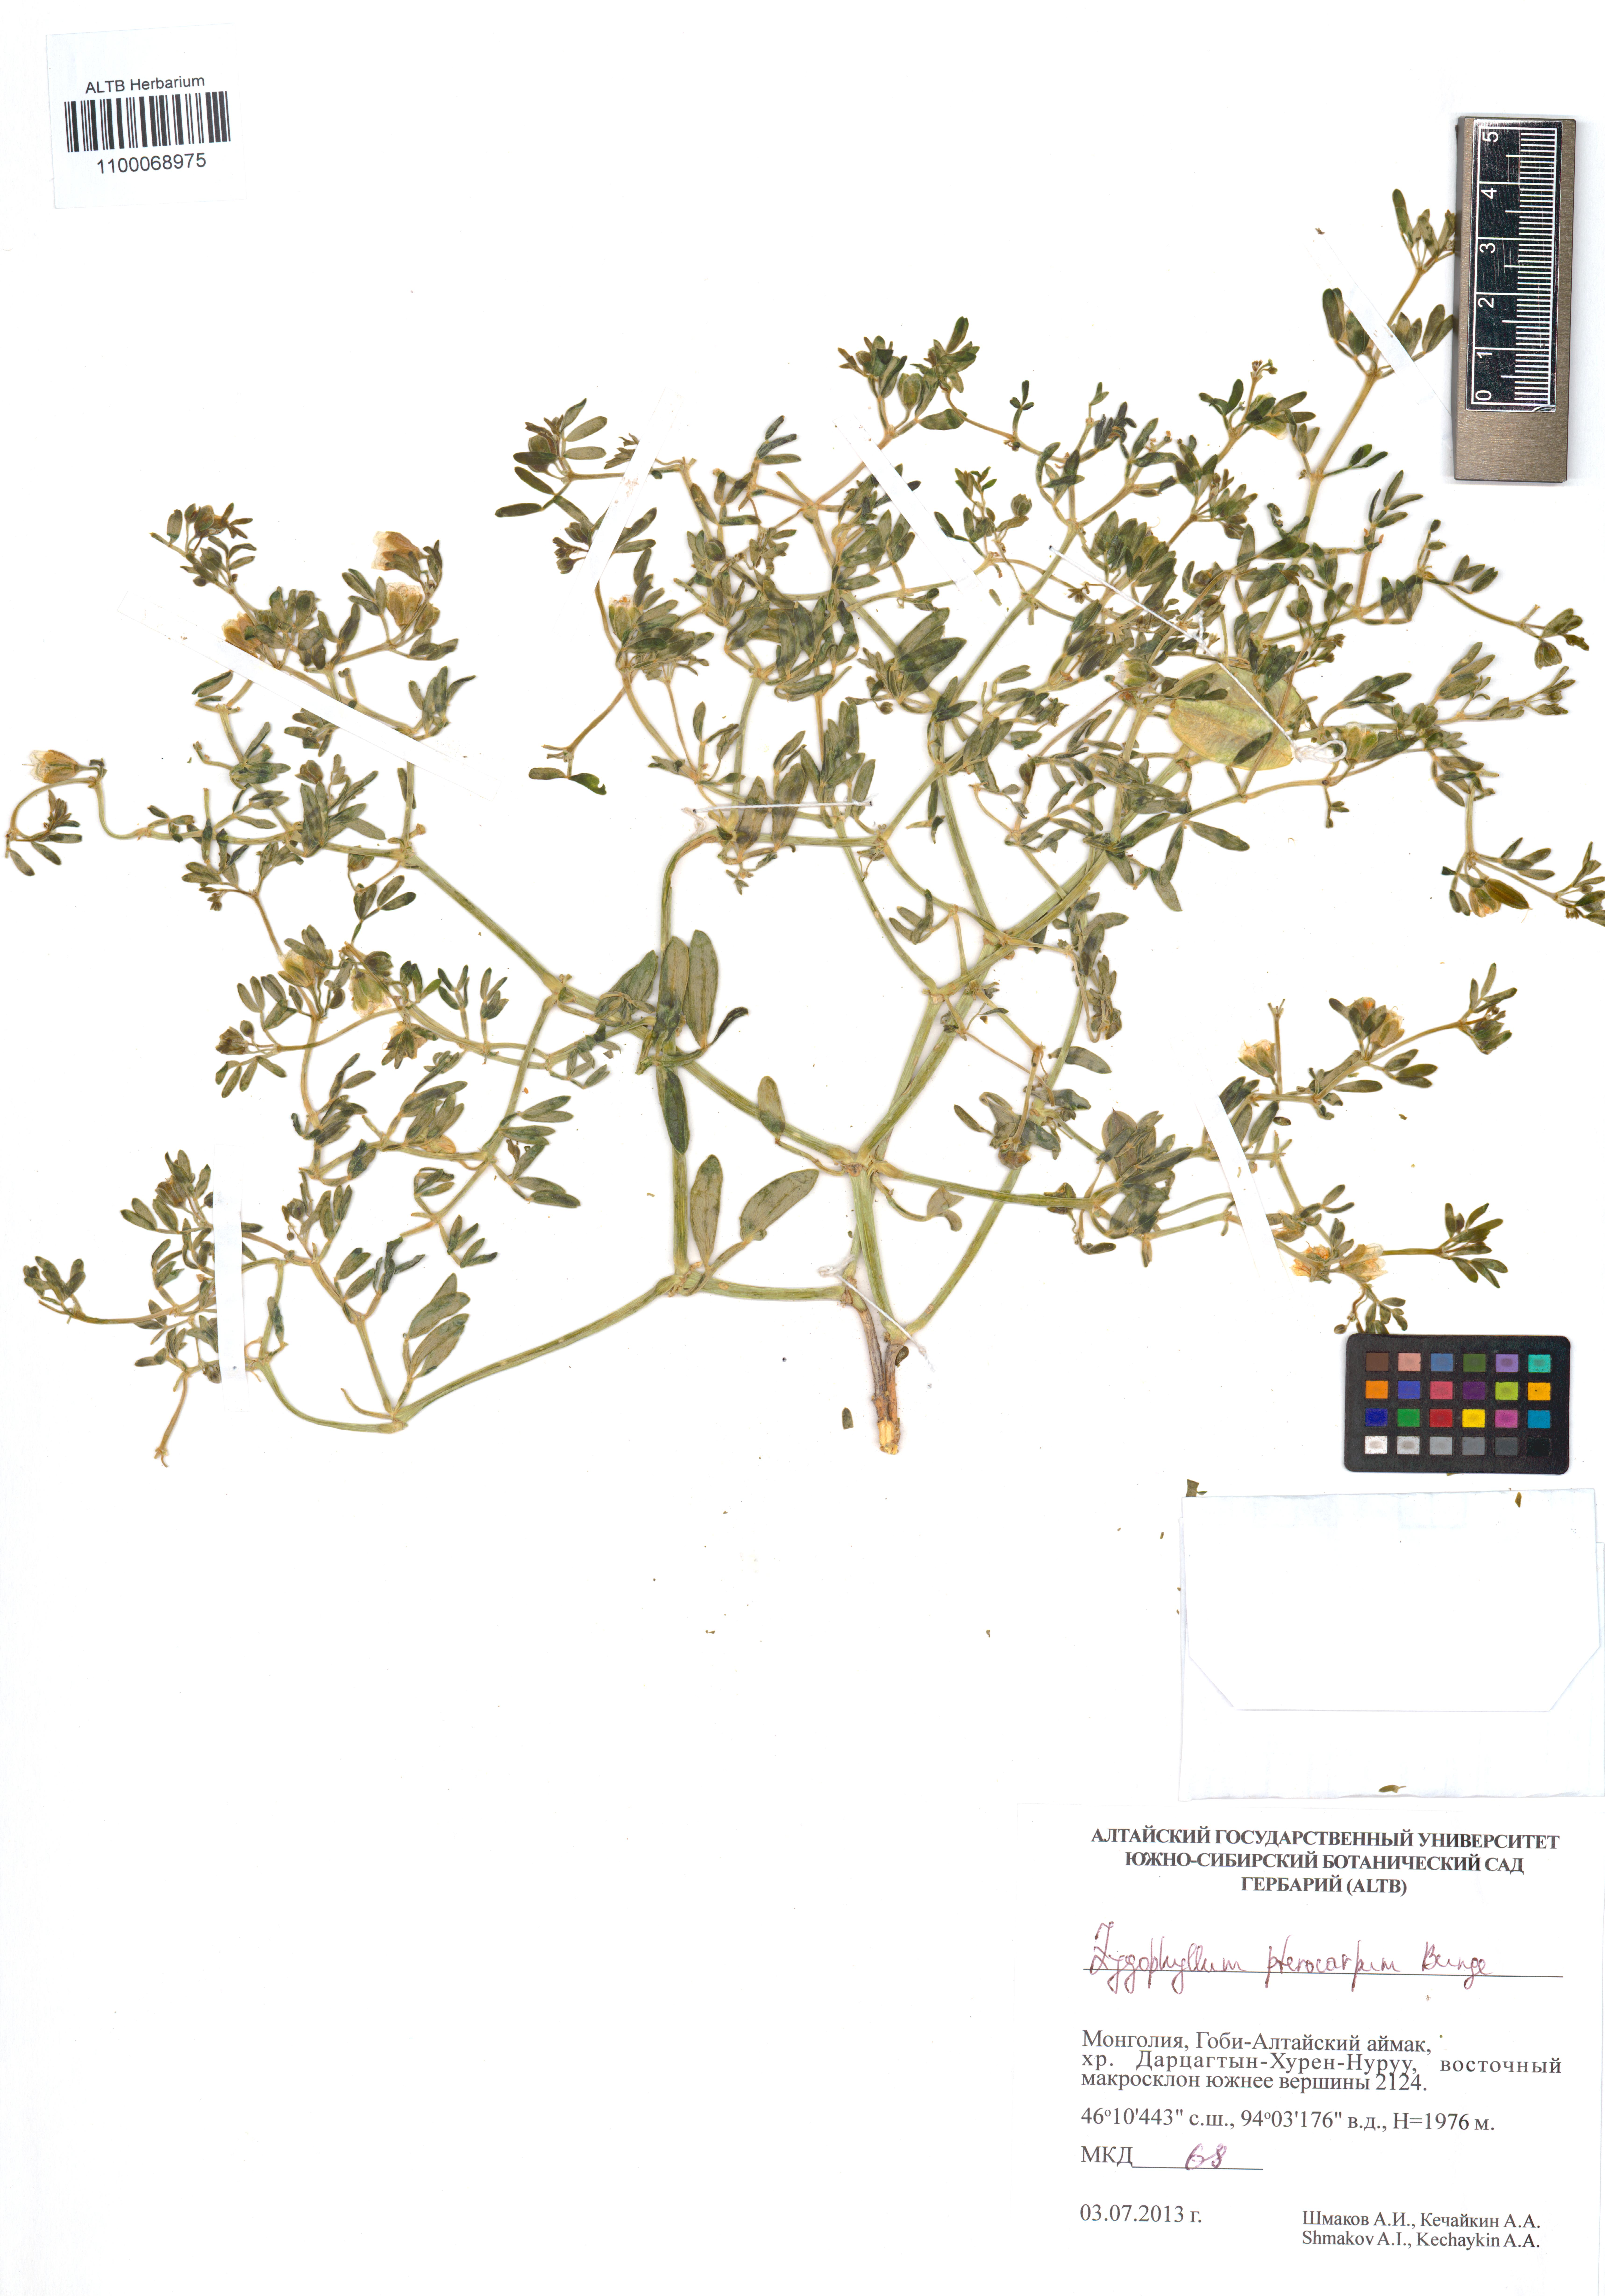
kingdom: Plantae
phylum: Tracheophyta
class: Magnoliopsida
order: Zygophyllales
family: Zygophyllaceae
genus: Zygophyllum
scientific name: Zygophyllum pterocarpum
